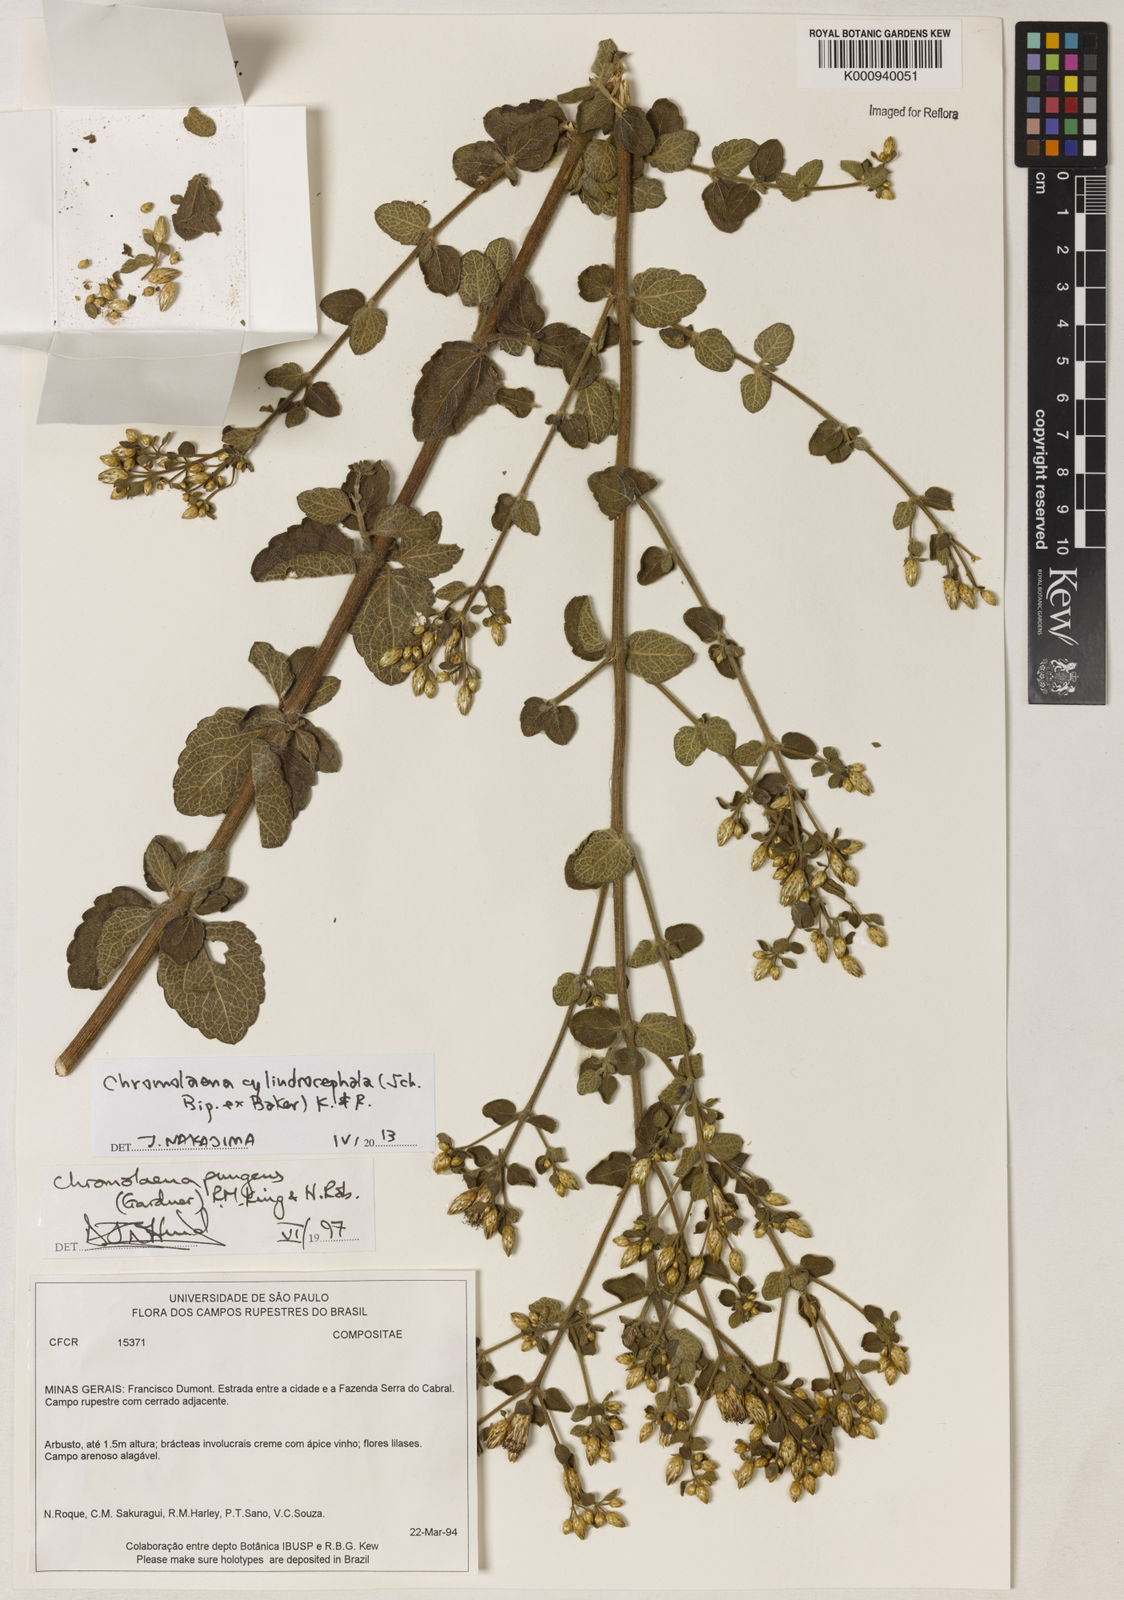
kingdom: Plantae
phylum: Tracheophyta
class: Magnoliopsida
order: Asterales
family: Asteraceae
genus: Chromolaena
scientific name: Chromolaena cylindrocephala
